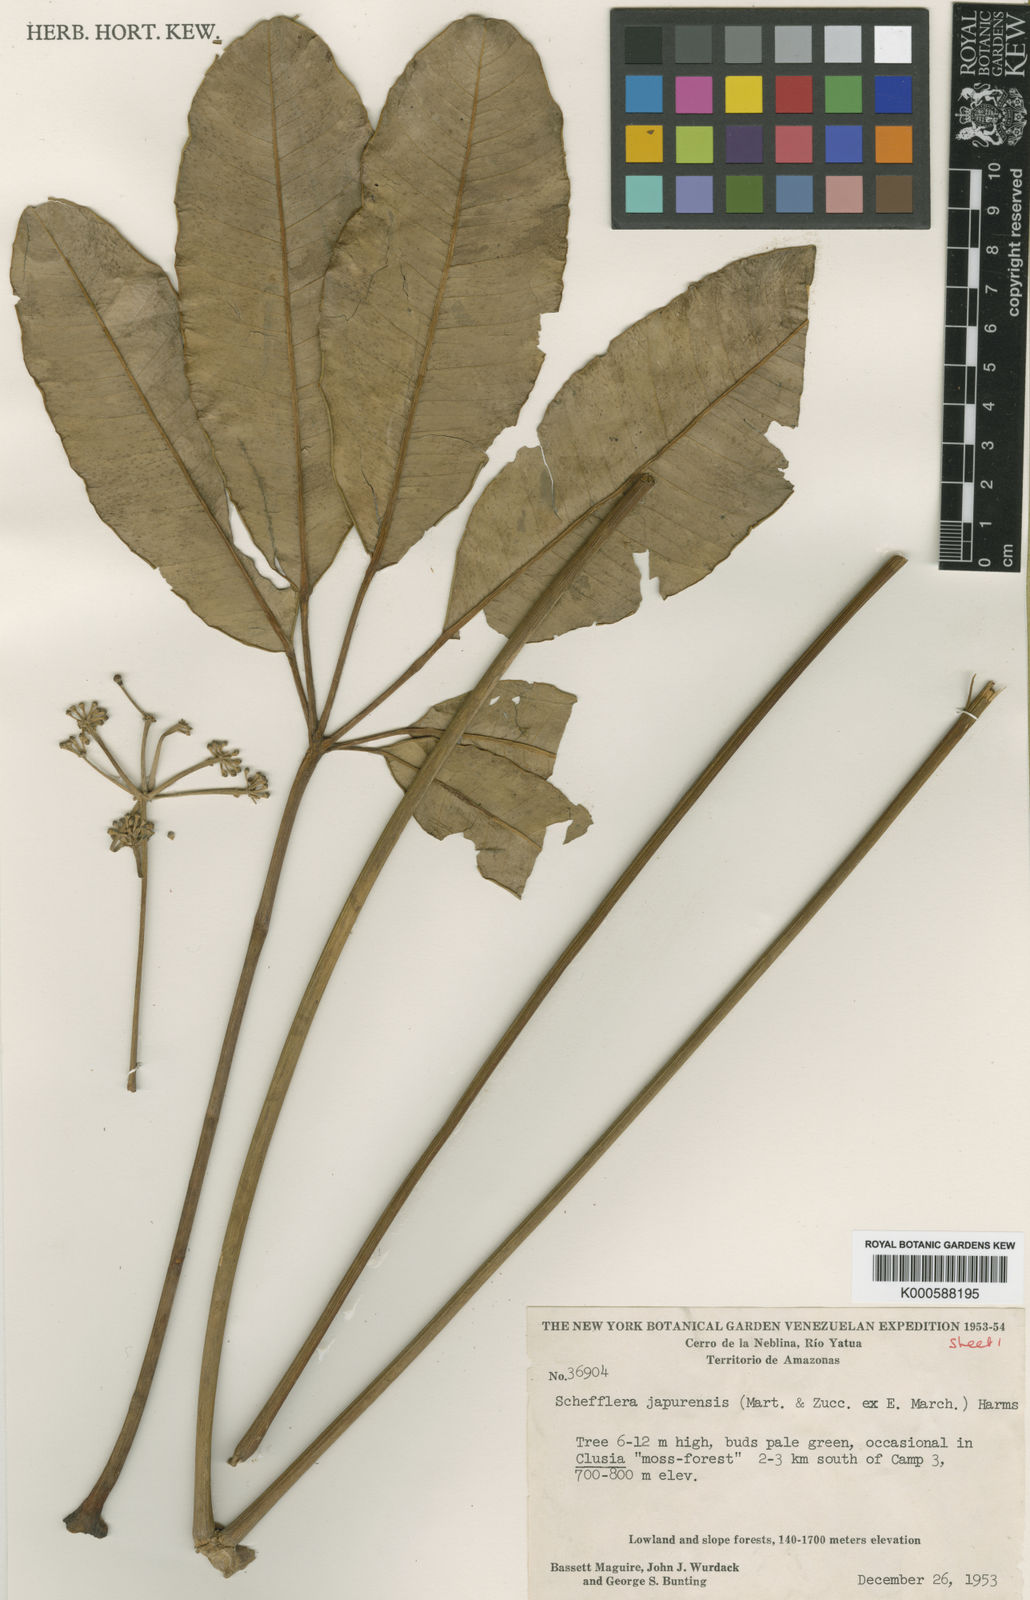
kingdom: Plantae
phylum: Tracheophyta
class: Magnoliopsida
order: Apiales
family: Araliaceae
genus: Crepinella
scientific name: Crepinella
